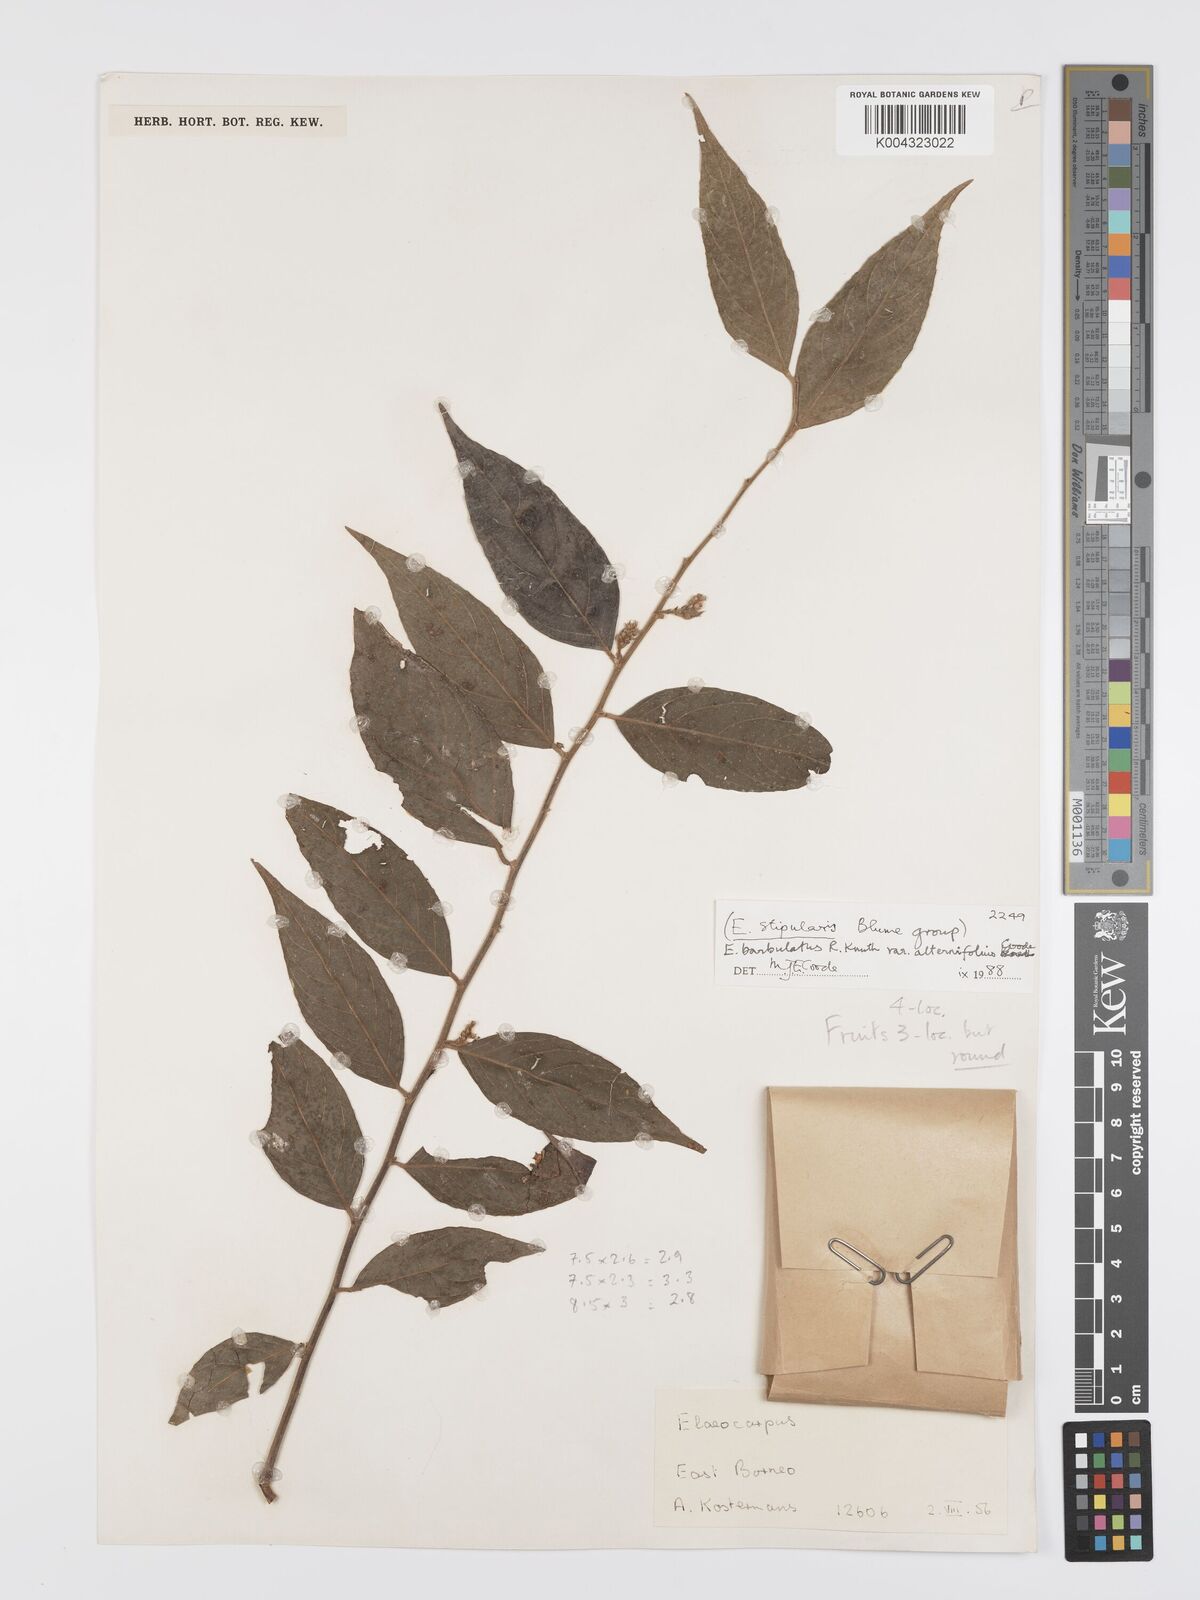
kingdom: Plantae
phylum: Tracheophyta
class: Magnoliopsida
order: Oxalidales
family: Elaeocarpaceae
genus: Elaeocarpus
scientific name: Elaeocarpus barbulatus
